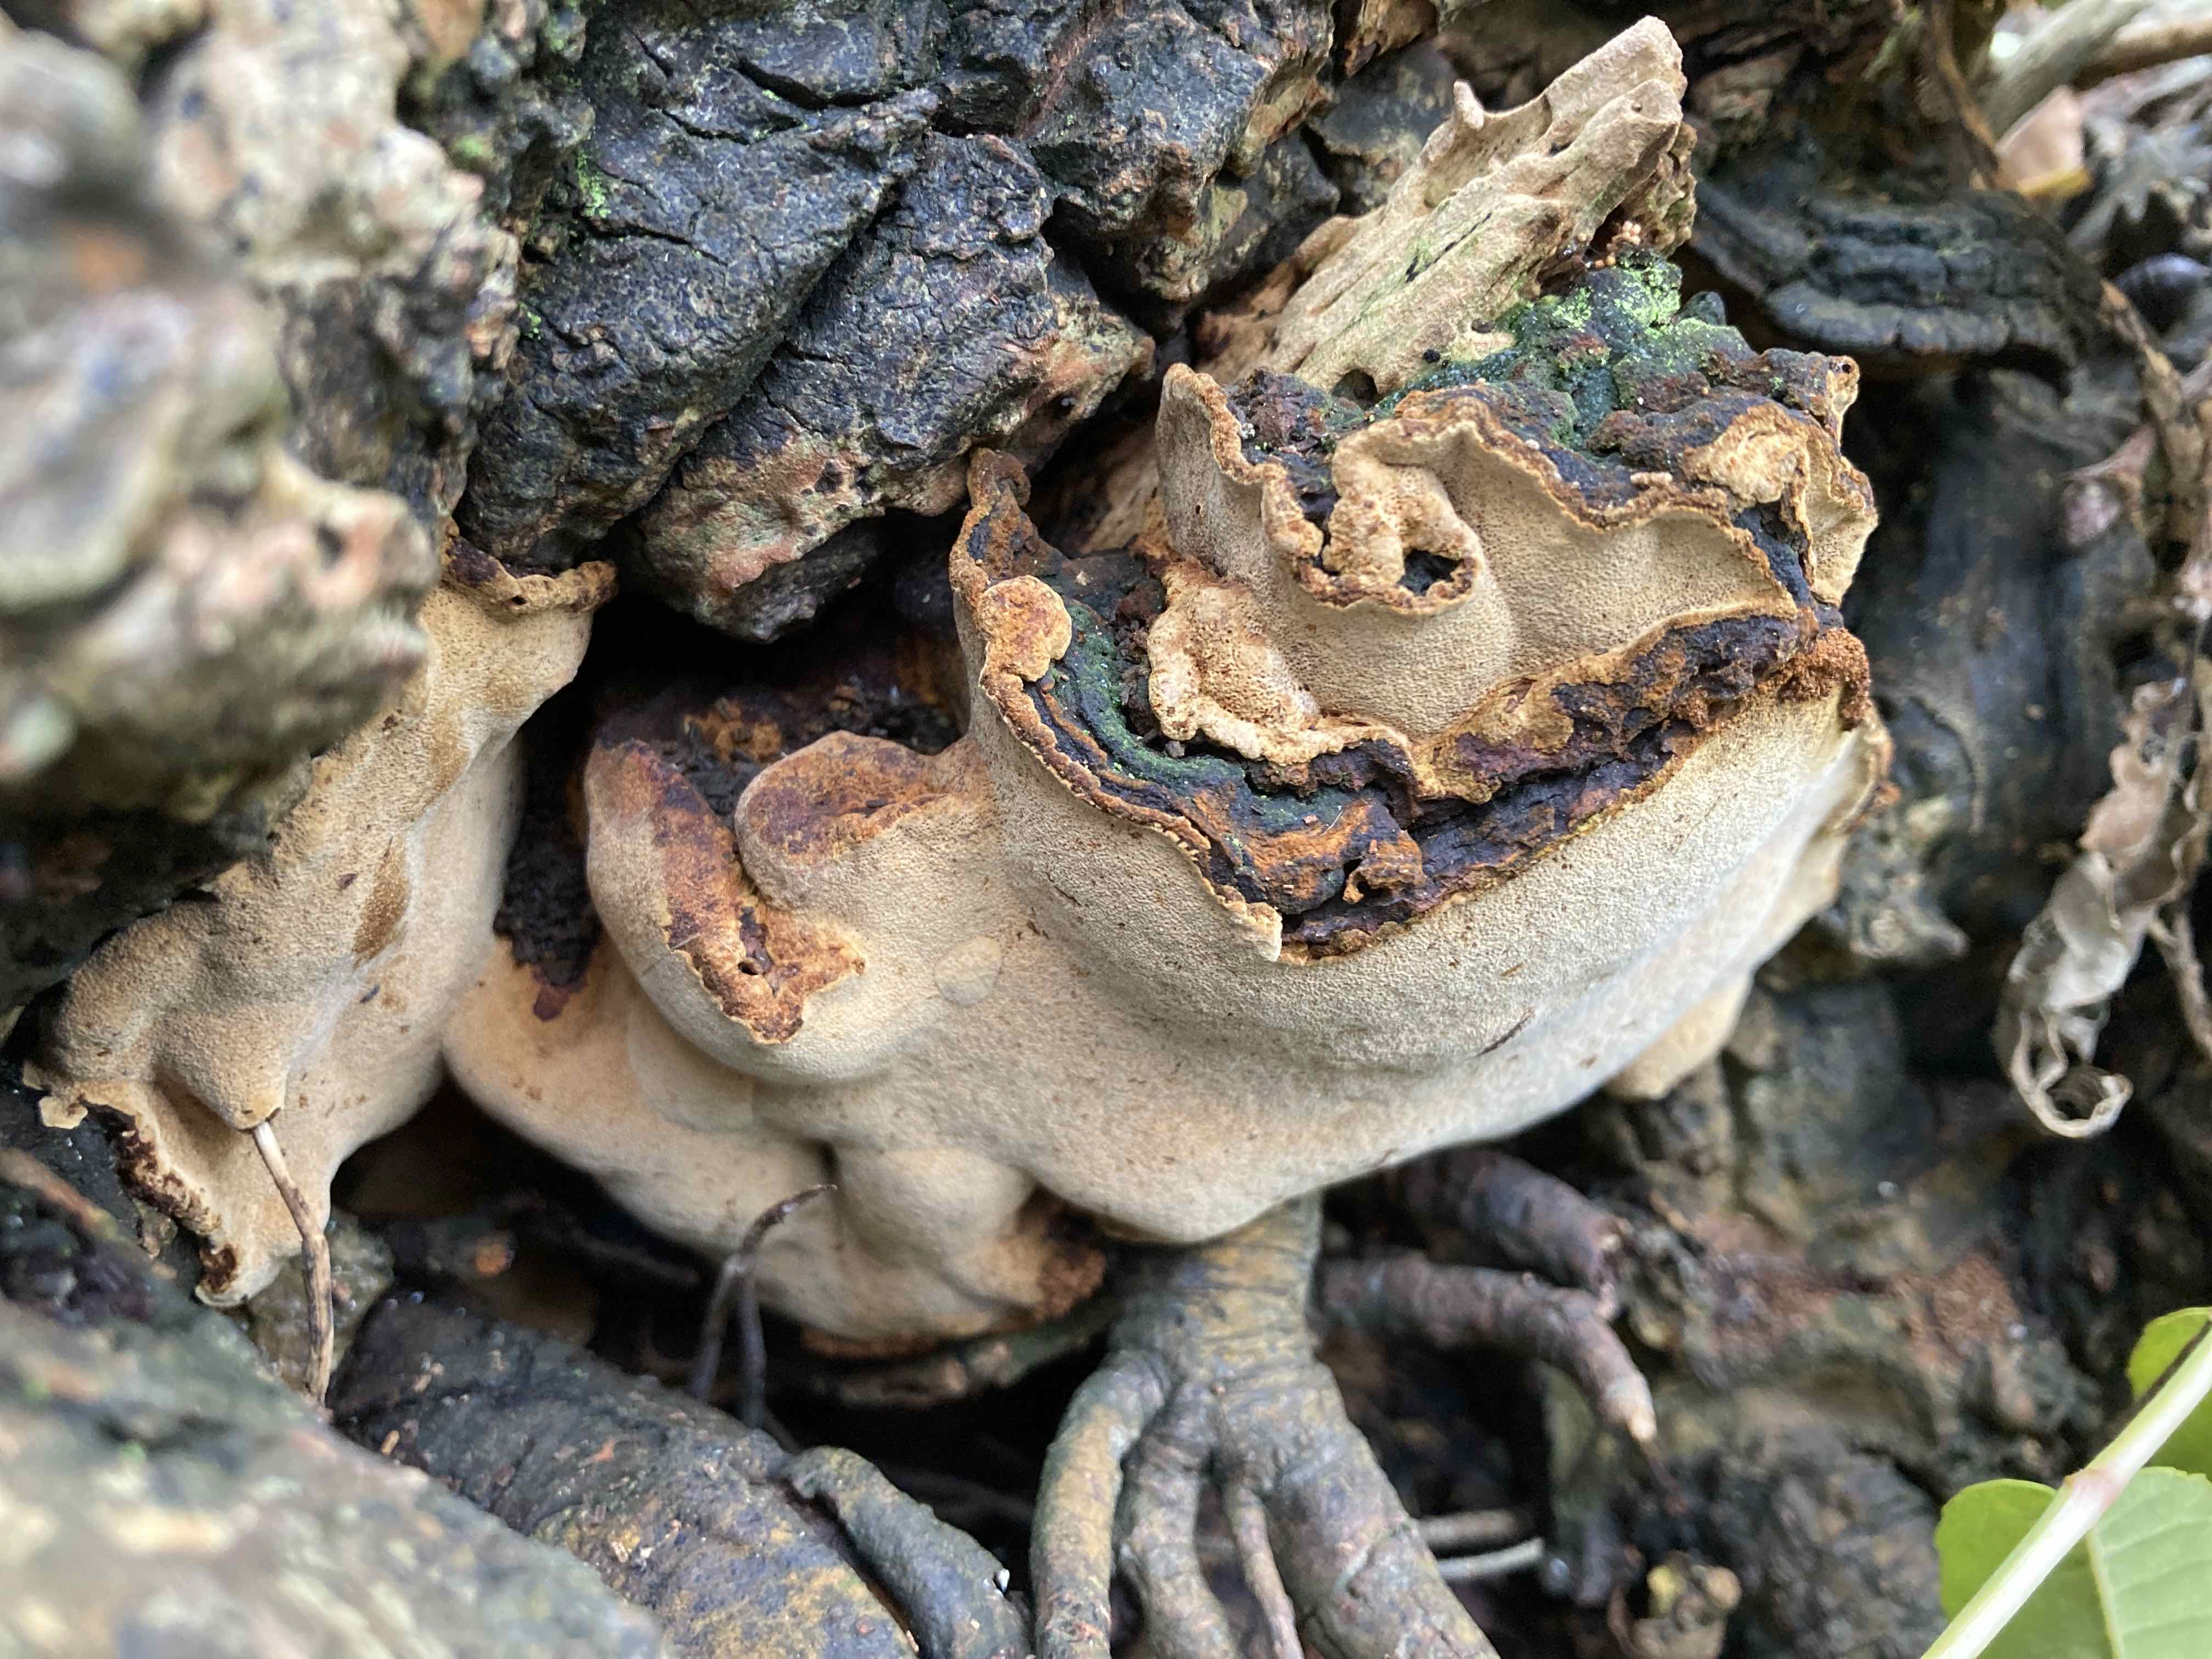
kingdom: Fungi
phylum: Basidiomycota
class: Agaricomycetes
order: Hymenochaetales
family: Hymenochaetaceae
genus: Phellinopsis
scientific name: Phellinopsis conchata
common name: pile-ildporesvamp
